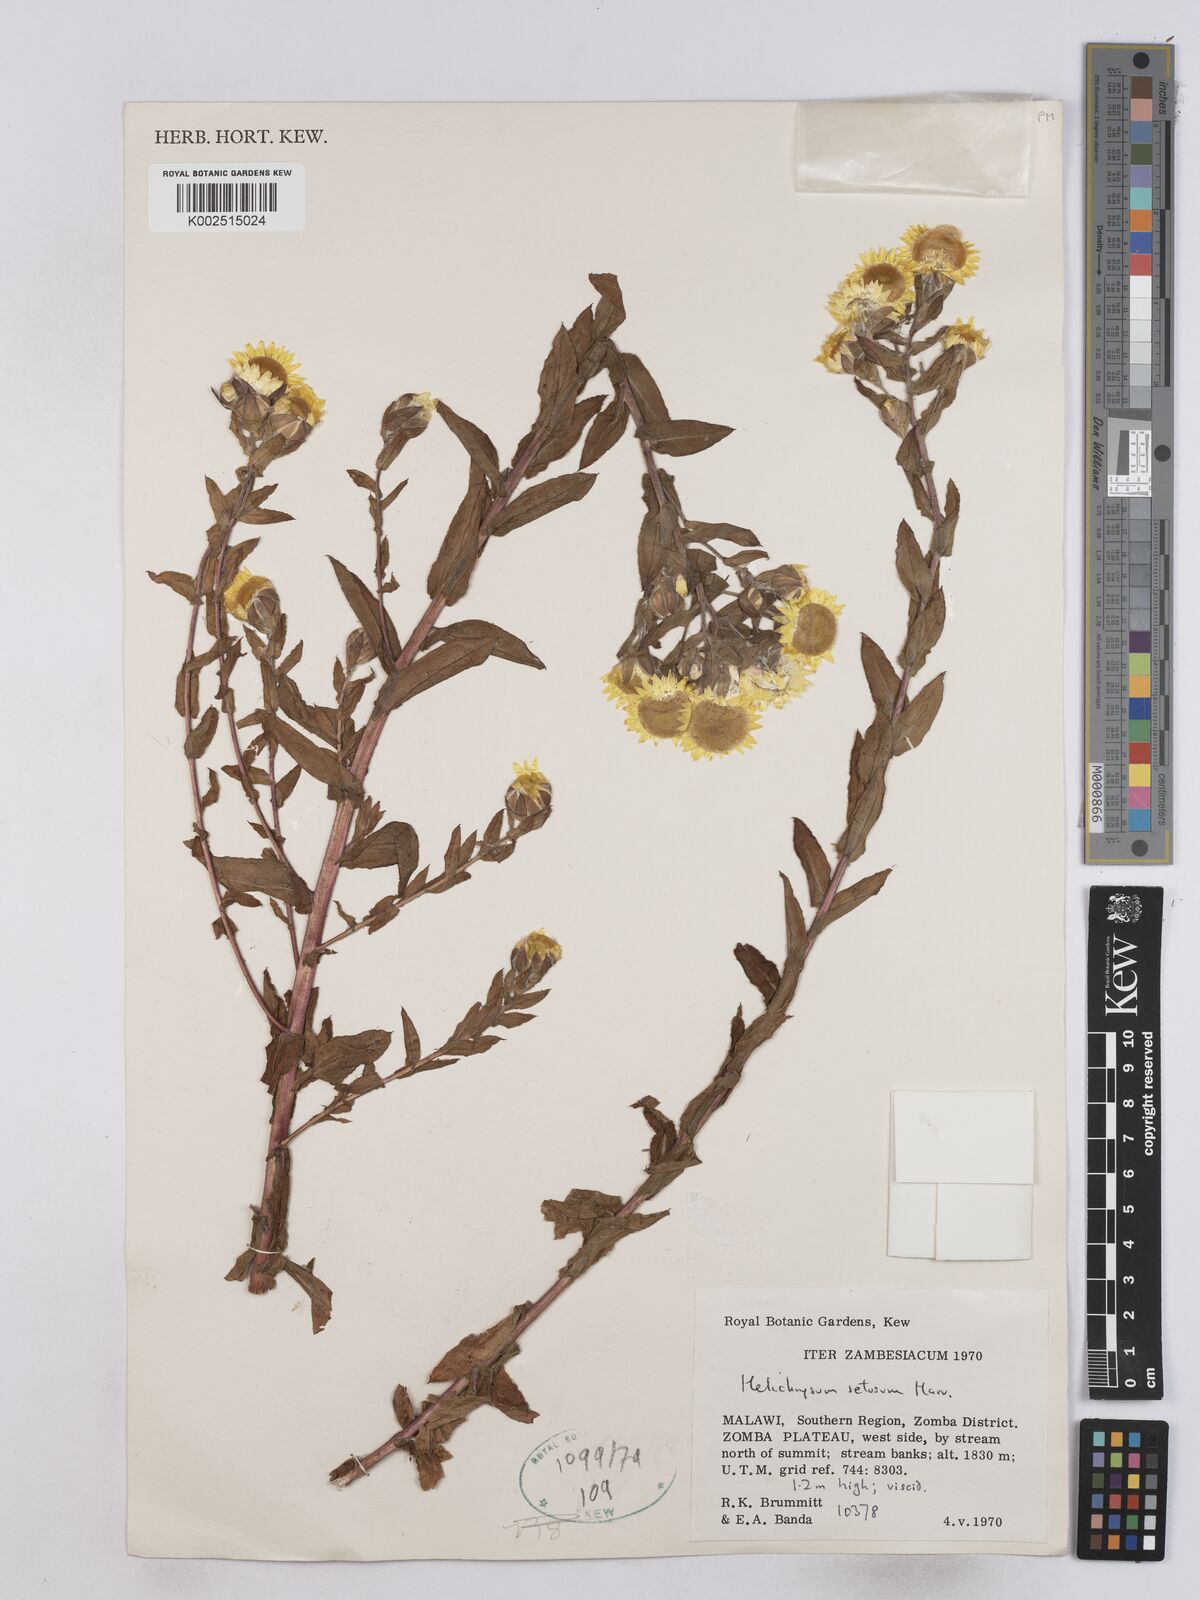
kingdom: Plantae
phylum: Tracheophyta
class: Magnoliopsida
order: Asterales
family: Asteraceae
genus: Helichrysum
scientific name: Helichrysum setosum
